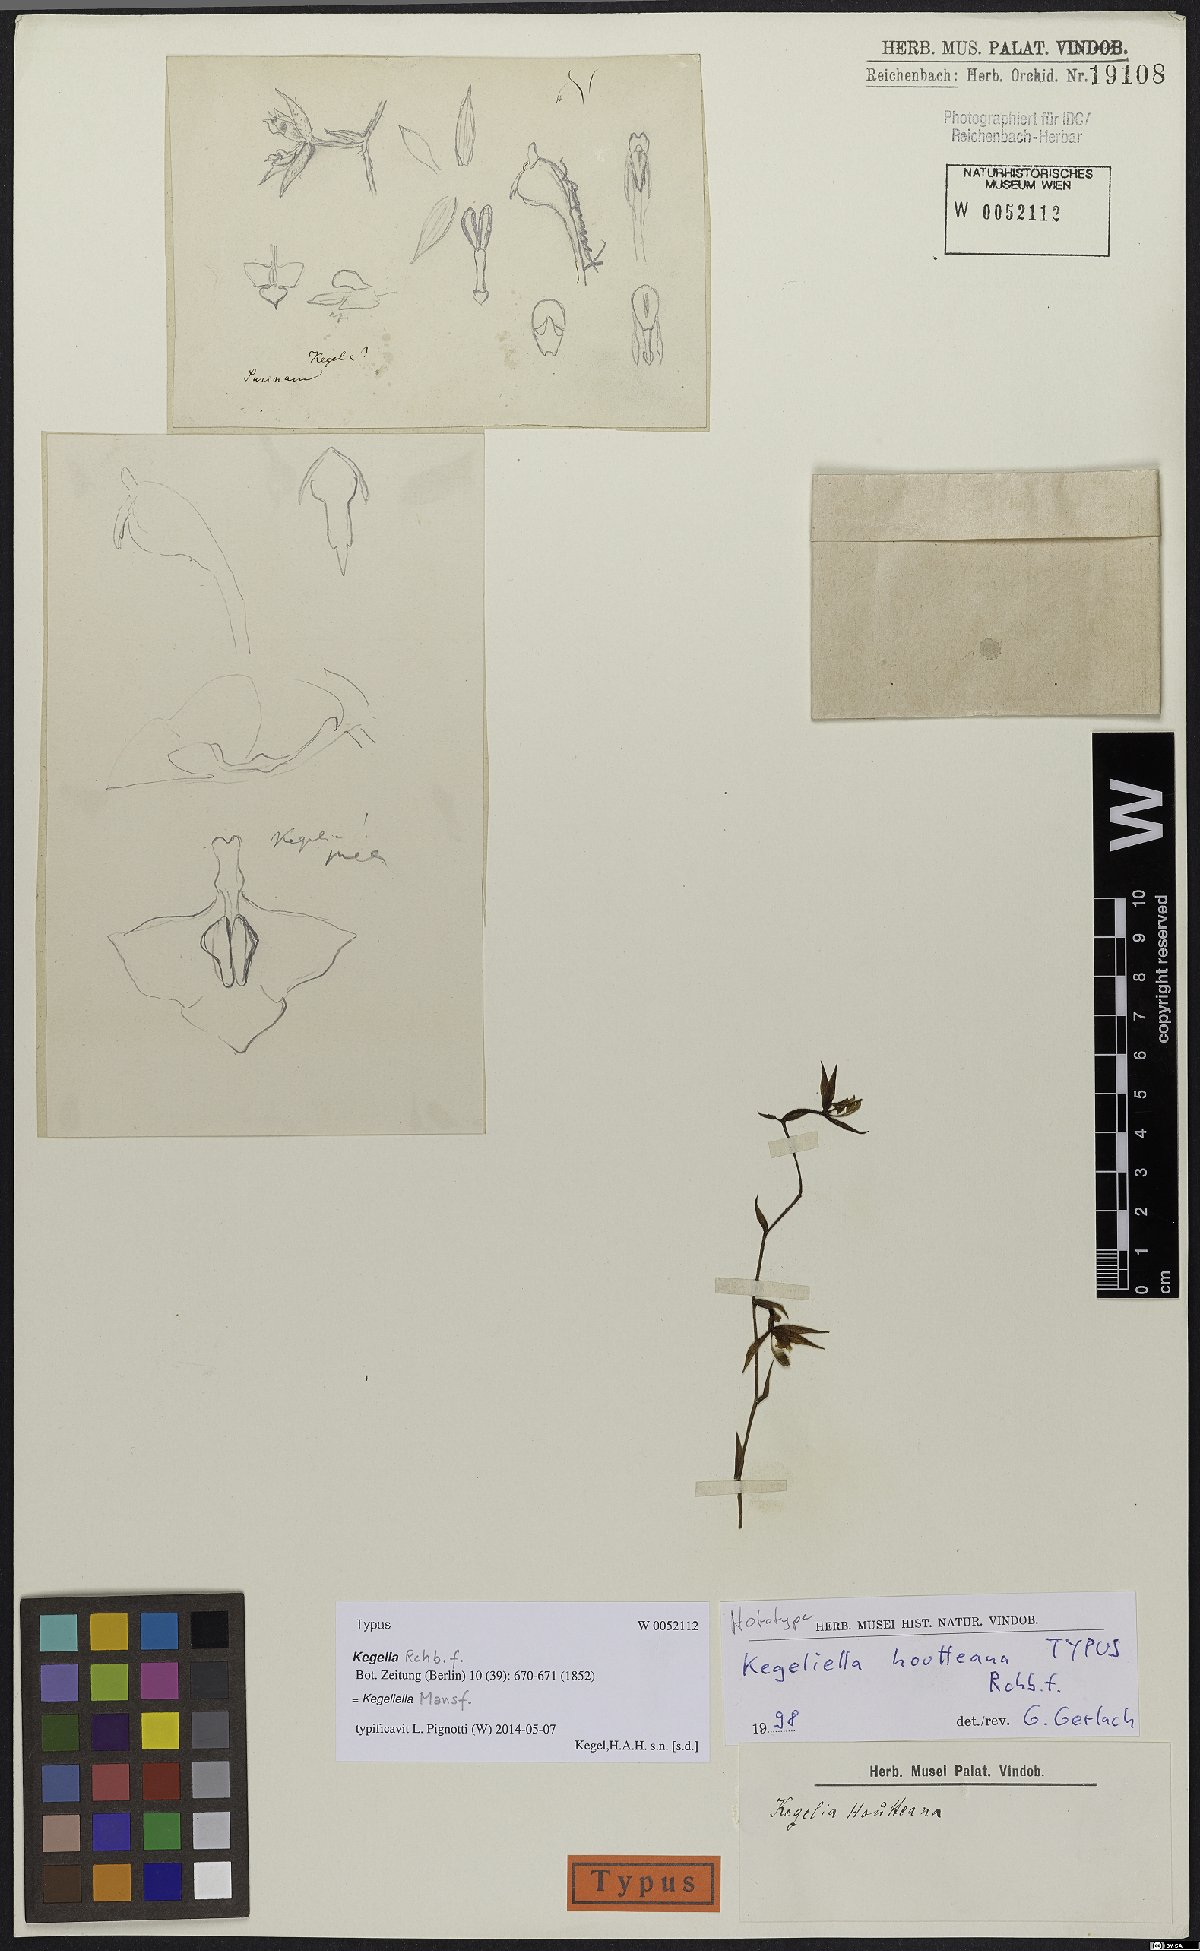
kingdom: Plantae
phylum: Tracheophyta
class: Liliopsida
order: Asparagales
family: Orchidaceae
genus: Kegeliella
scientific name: Kegeliella houtteana
